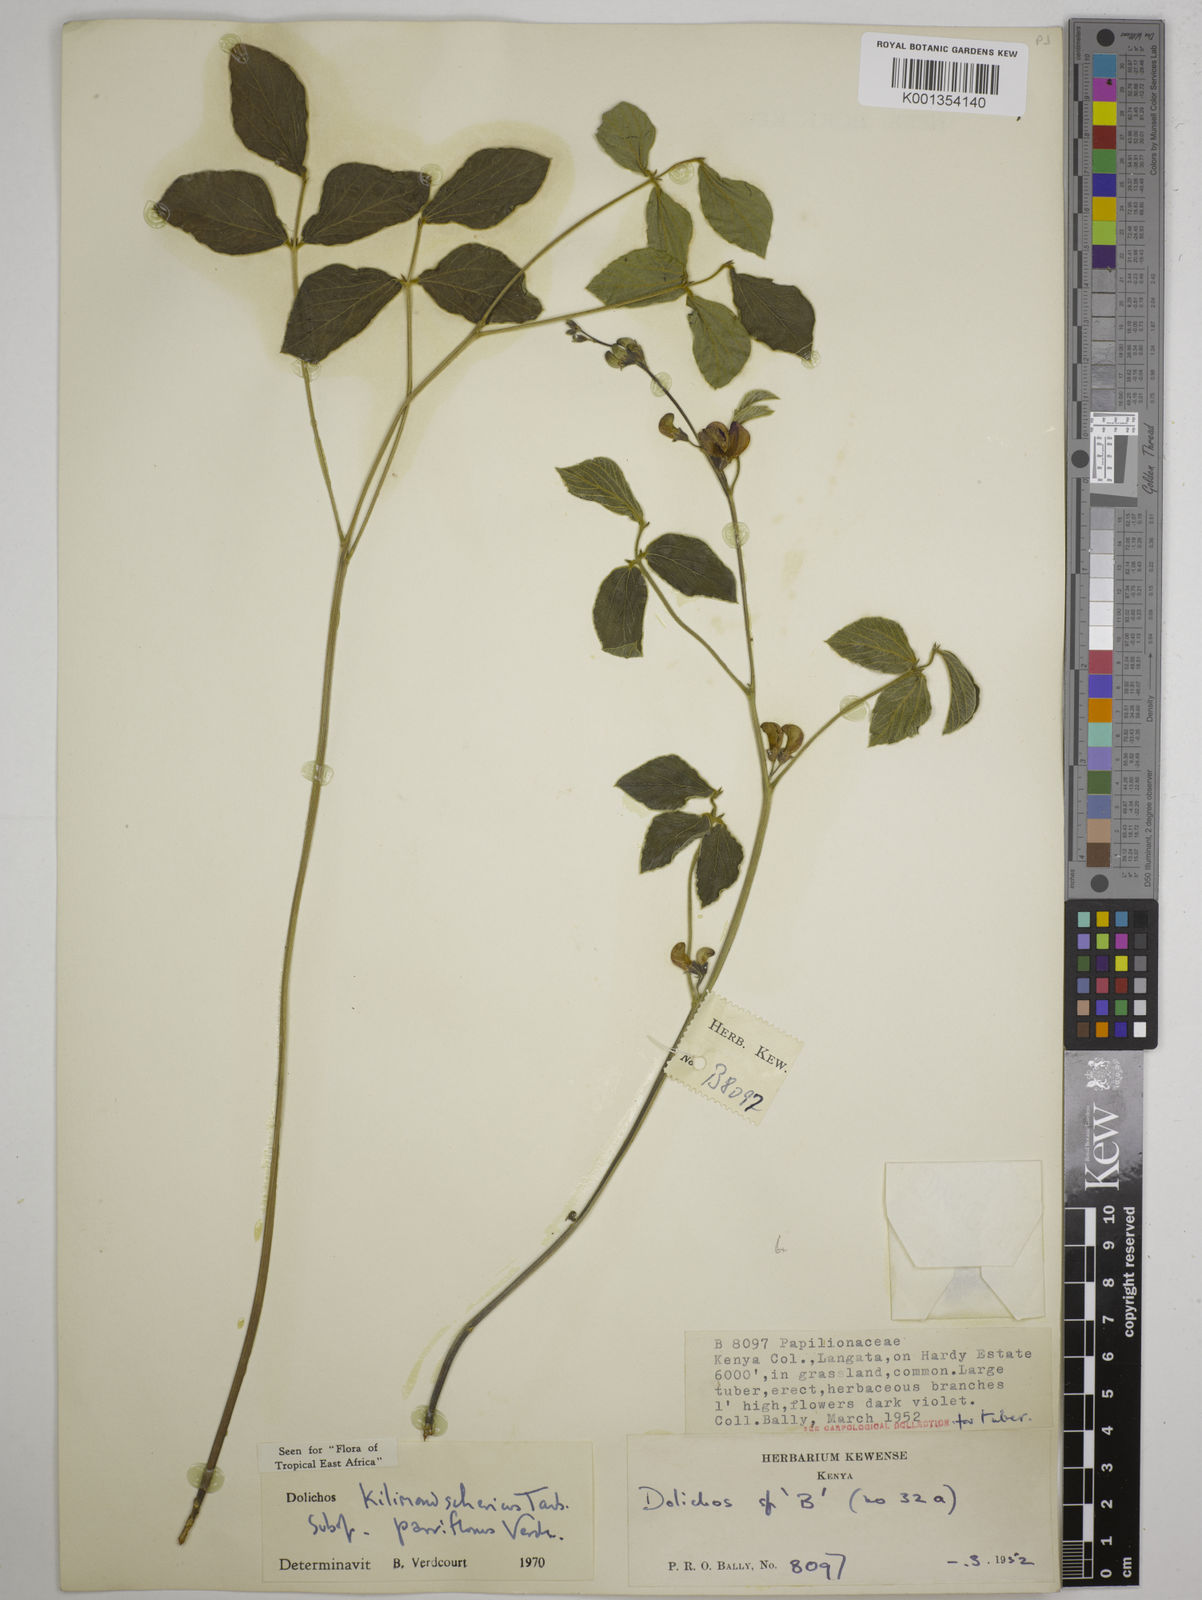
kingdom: Plantae
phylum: Tracheophyta
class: Magnoliopsida
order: Fabales
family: Fabaceae
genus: Dolichos
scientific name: Dolichos
